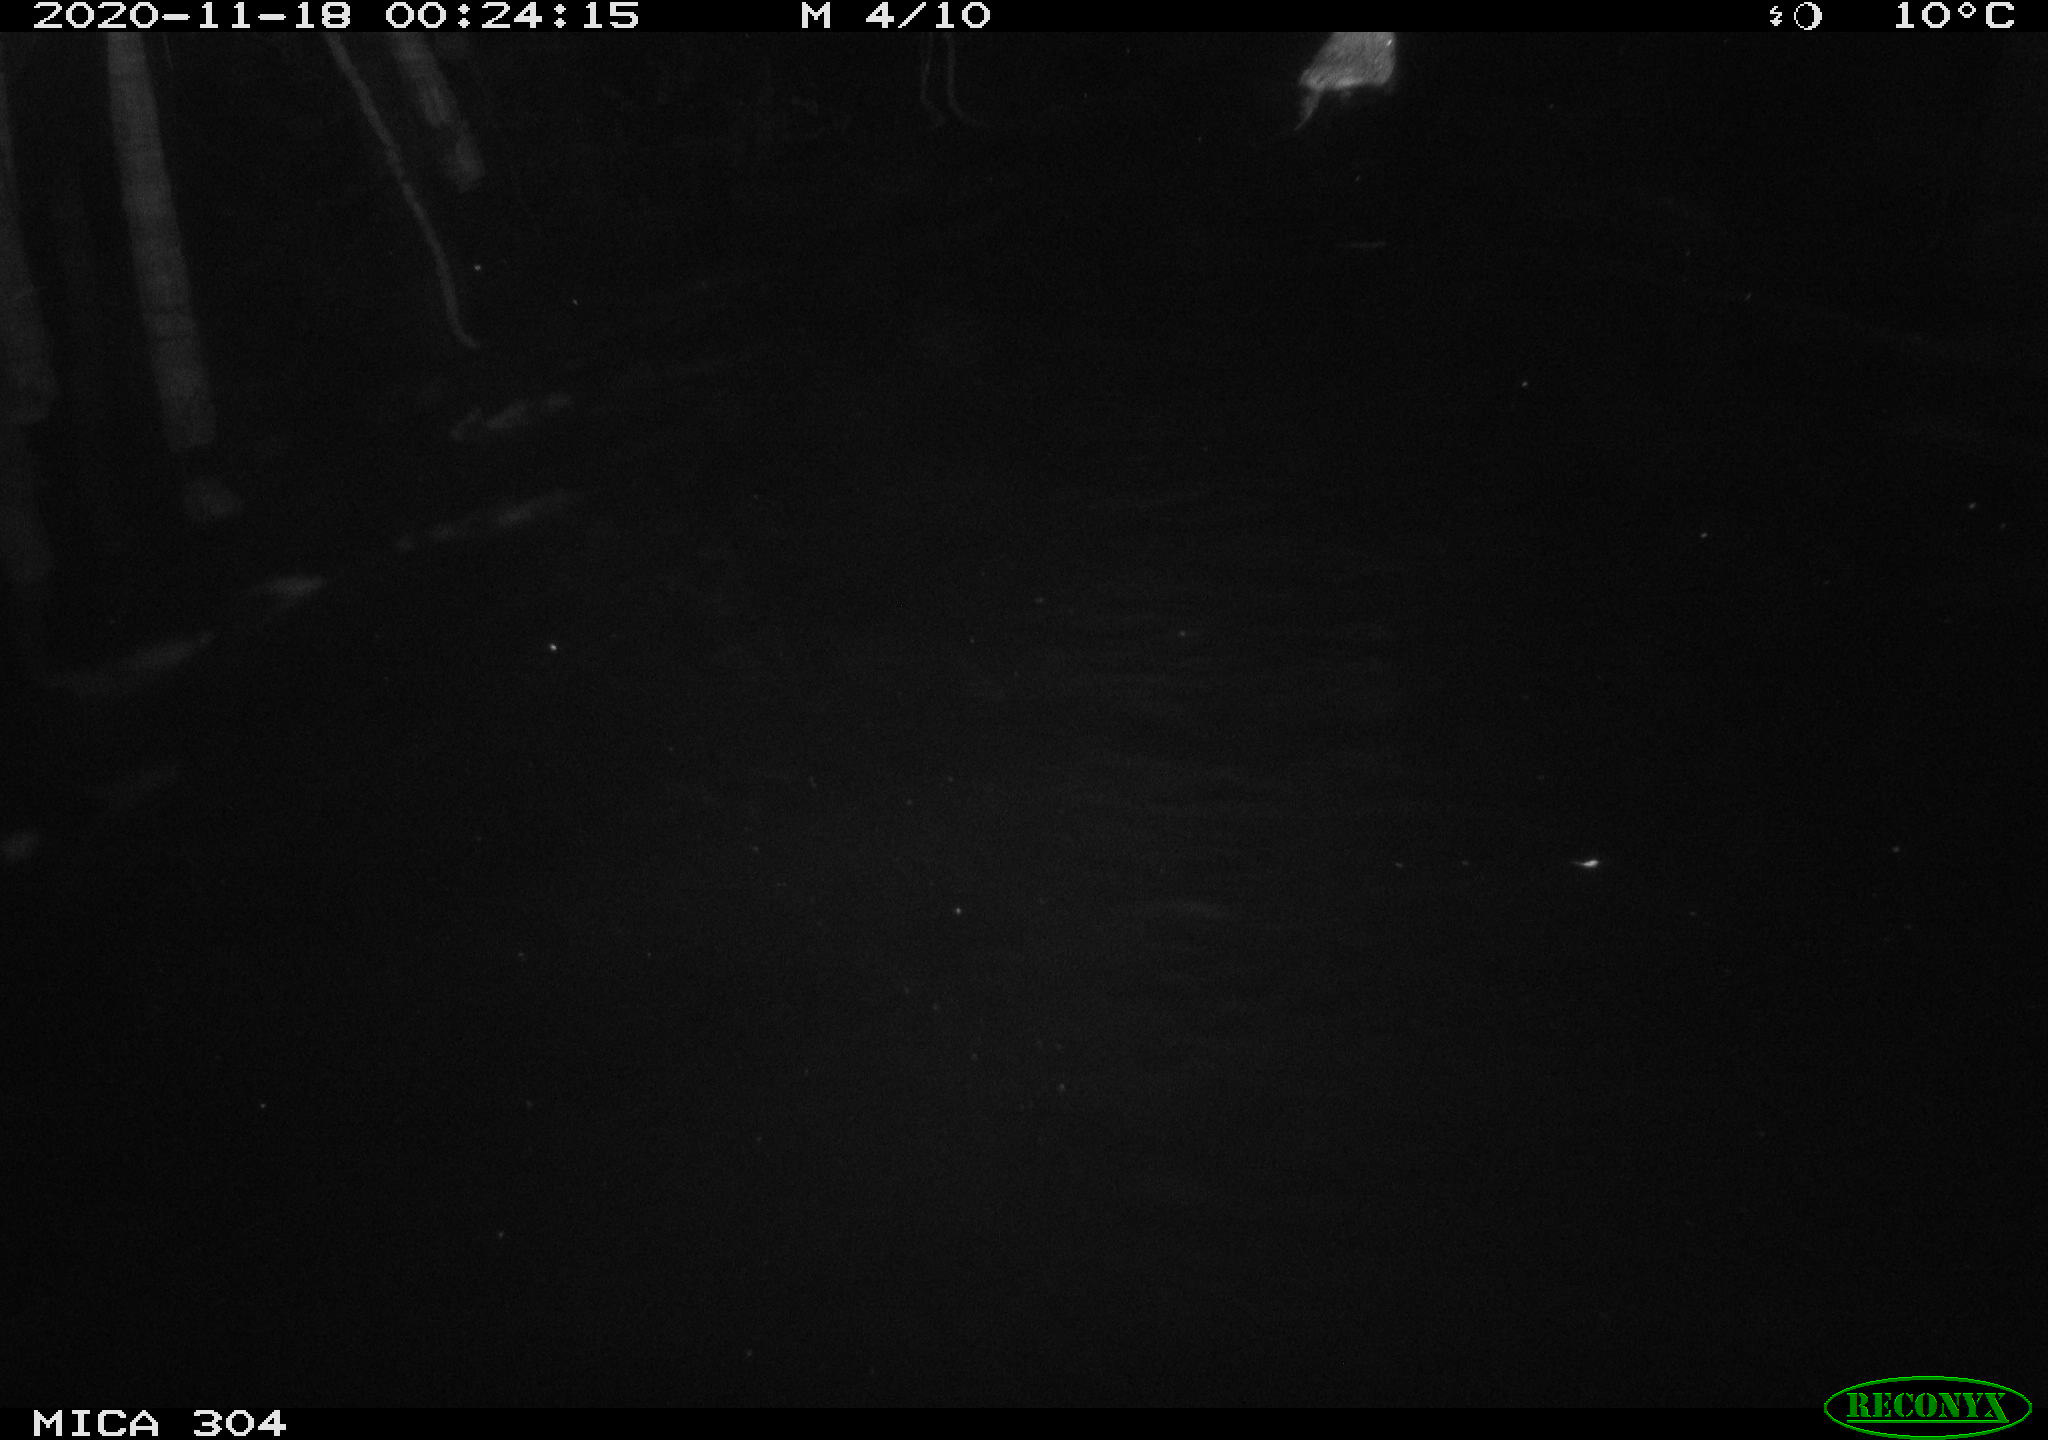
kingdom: Animalia
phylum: Chordata
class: Mammalia
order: Rodentia
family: Cricetidae
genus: Ondatra
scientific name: Ondatra zibethicus
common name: Muskrat
